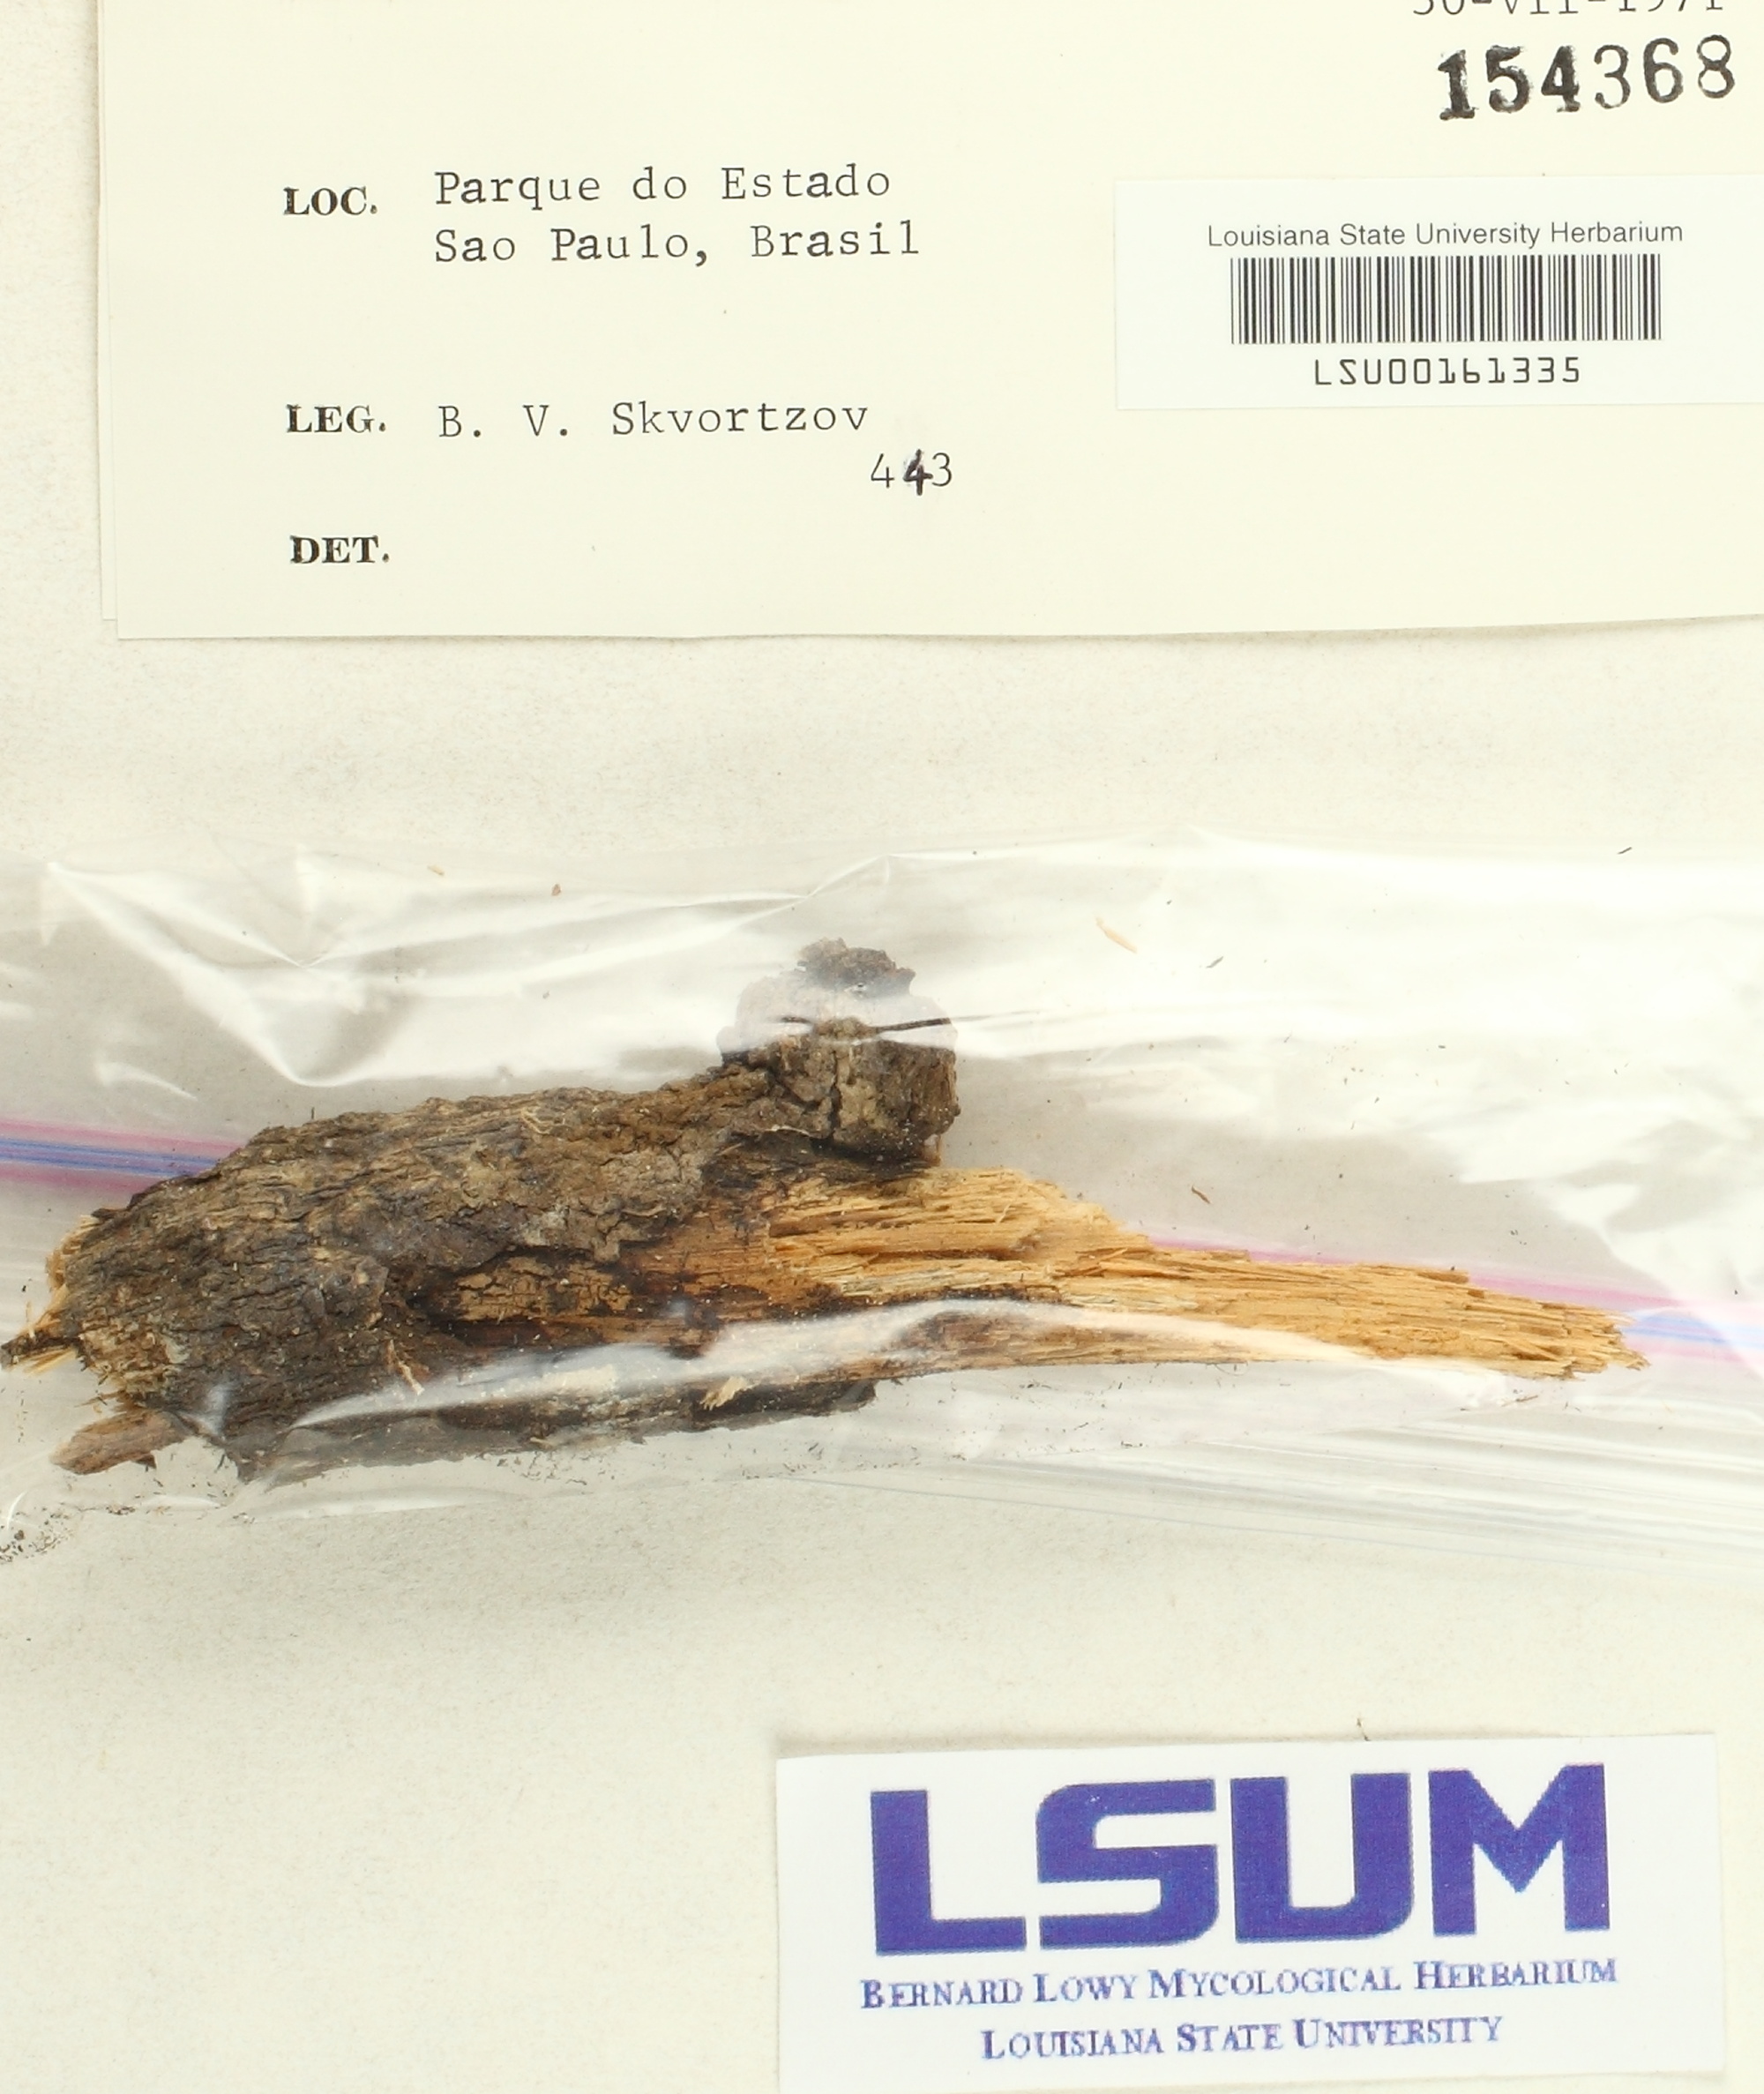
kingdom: Fungi
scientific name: Fungi
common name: Fungi
